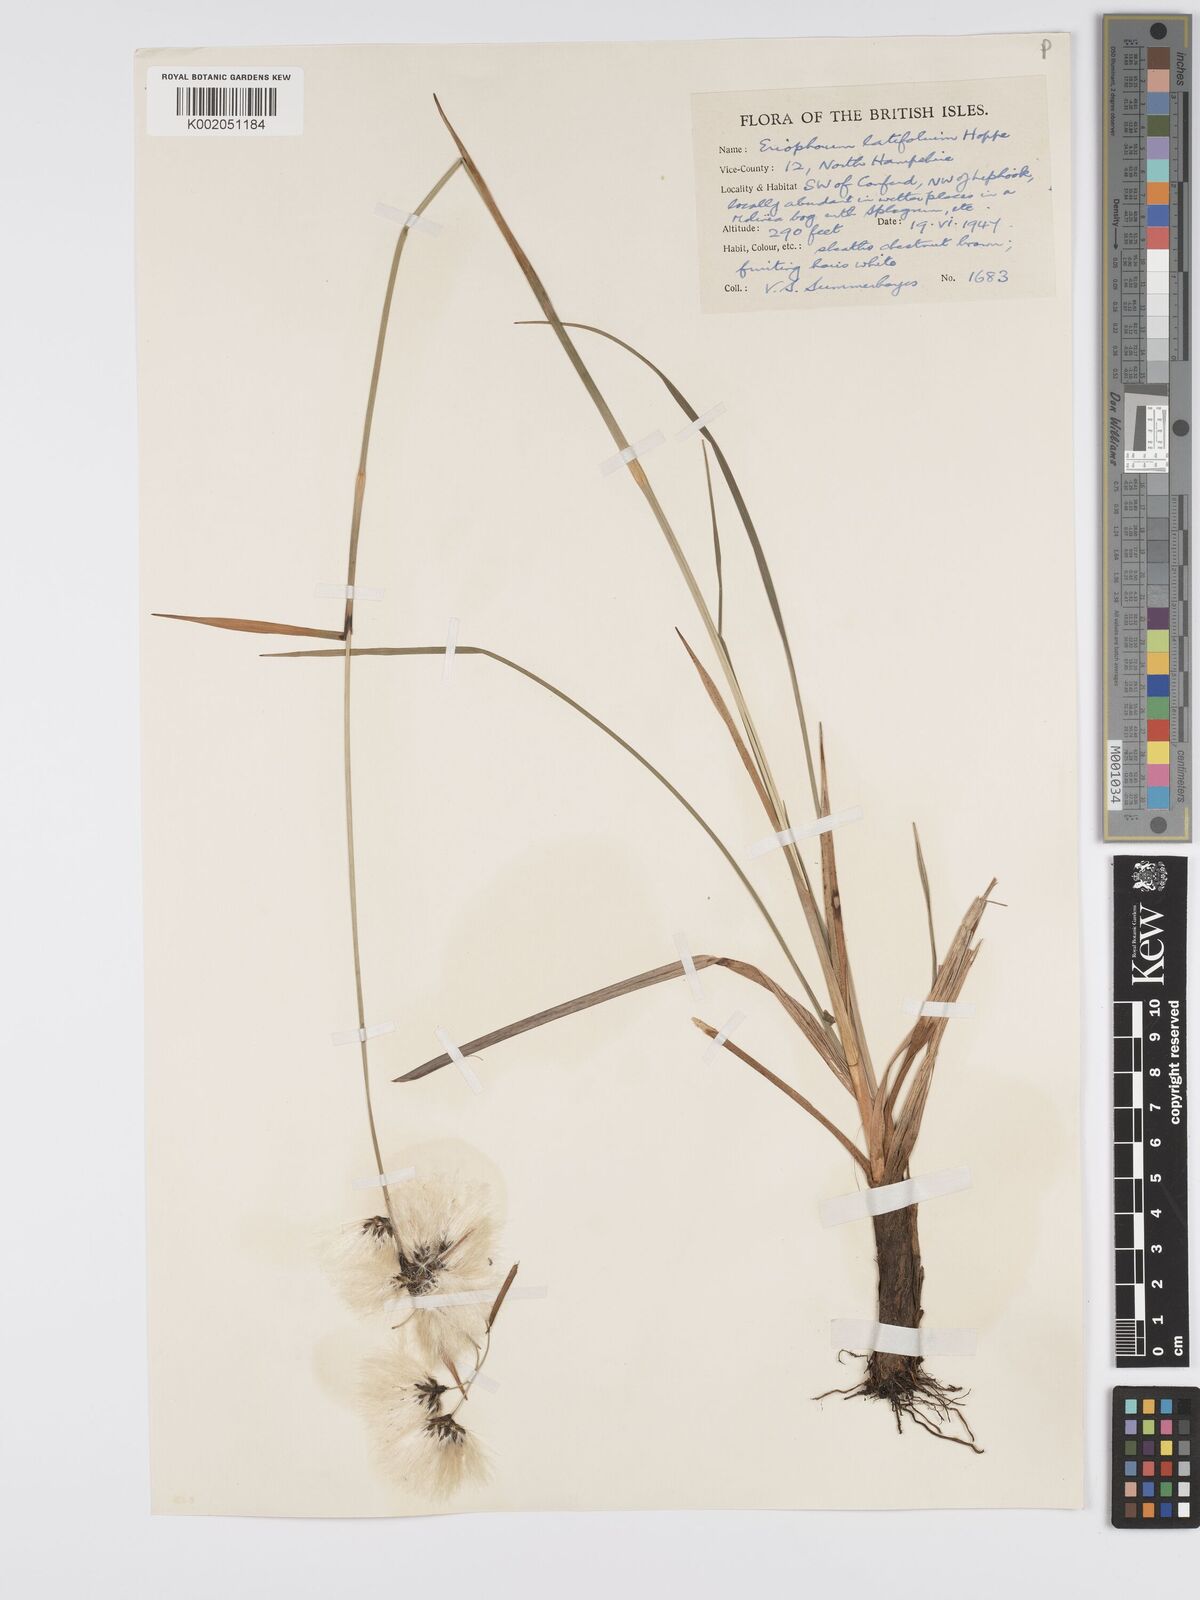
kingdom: Plantae
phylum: Tracheophyta
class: Liliopsida
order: Poales
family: Cyperaceae
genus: Eriophorum
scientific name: Eriophorum latifolium
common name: Broad-leaved cottongrass
